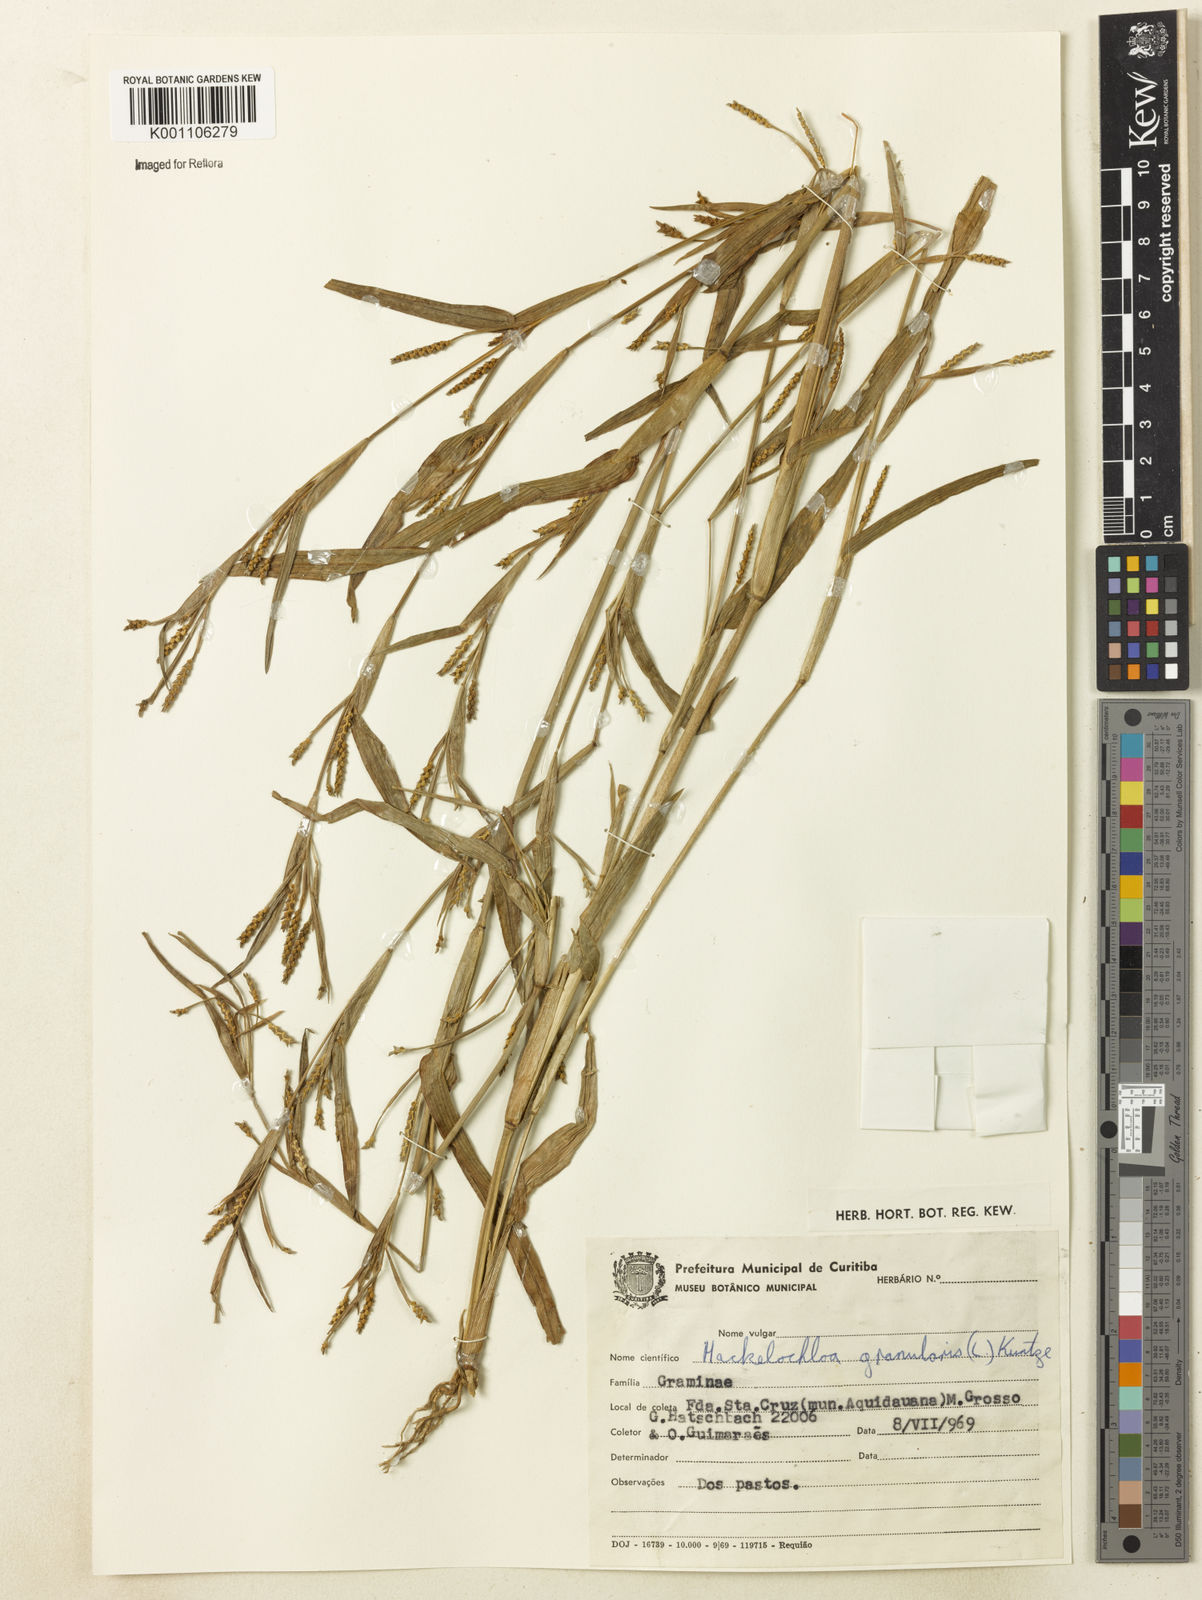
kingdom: Plantae
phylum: Tracheophyta
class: Liliopsida
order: Poales
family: Poaceae
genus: Hackelochloa
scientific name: Hackelochloa granularis
